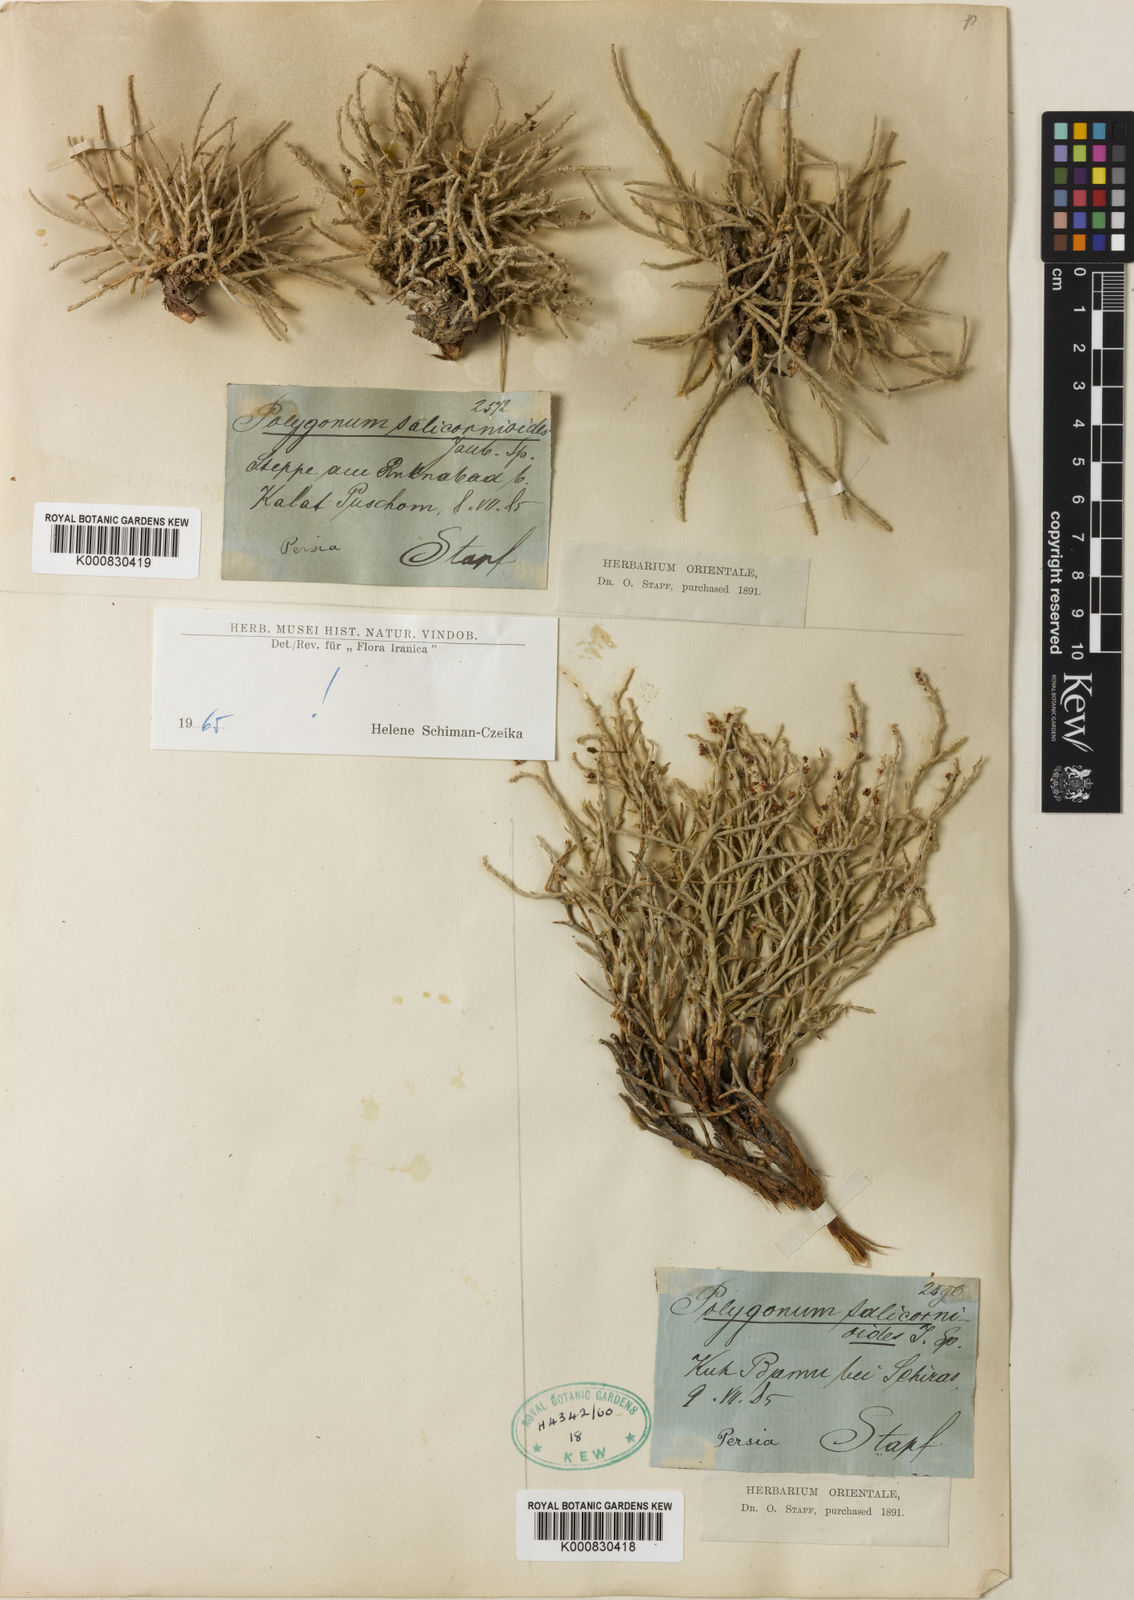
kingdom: Plantae
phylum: Tracheophyta
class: Magnoliopsida
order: Caryophyllales
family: Polygonaceae
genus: Polygonum
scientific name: Polygonum
